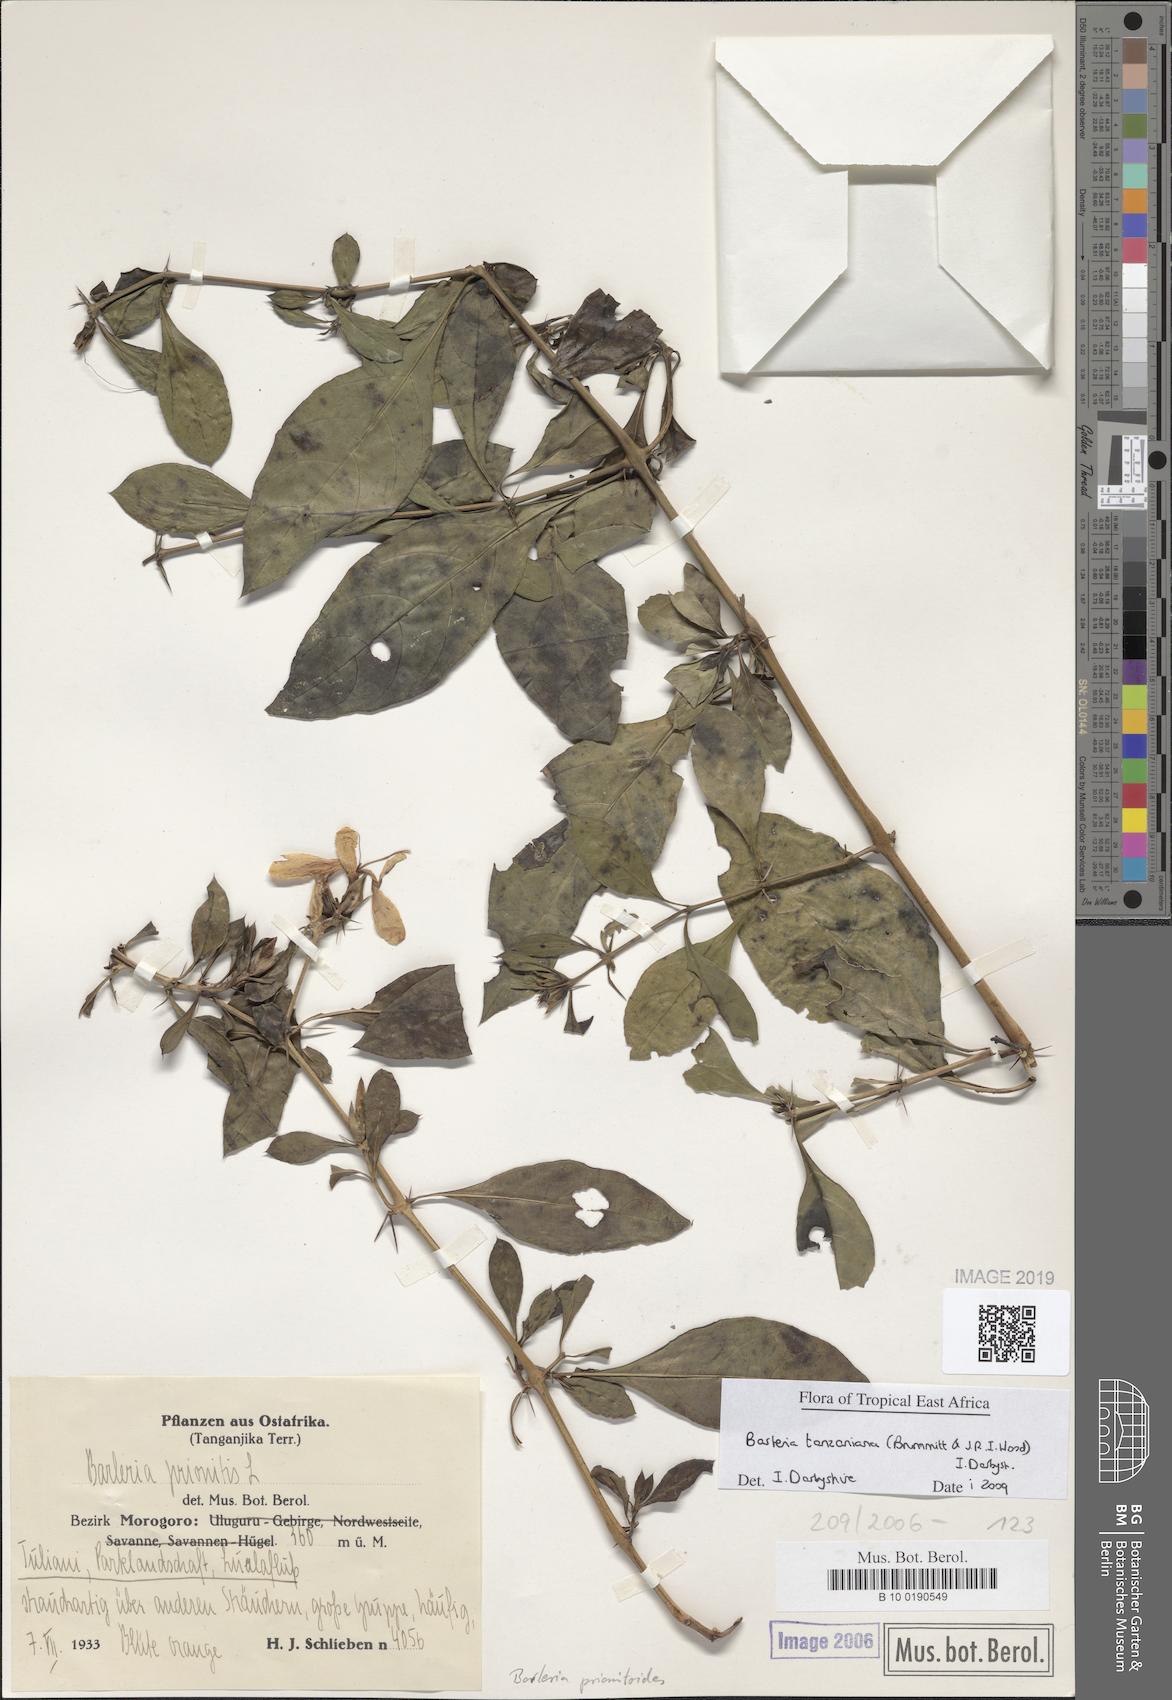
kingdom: Plantae
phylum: Tracheophyta
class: Magnoliopsida
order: Lamiales
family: Acanthaceae
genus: Barleria
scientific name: Barleria prionitis
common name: Barleria
